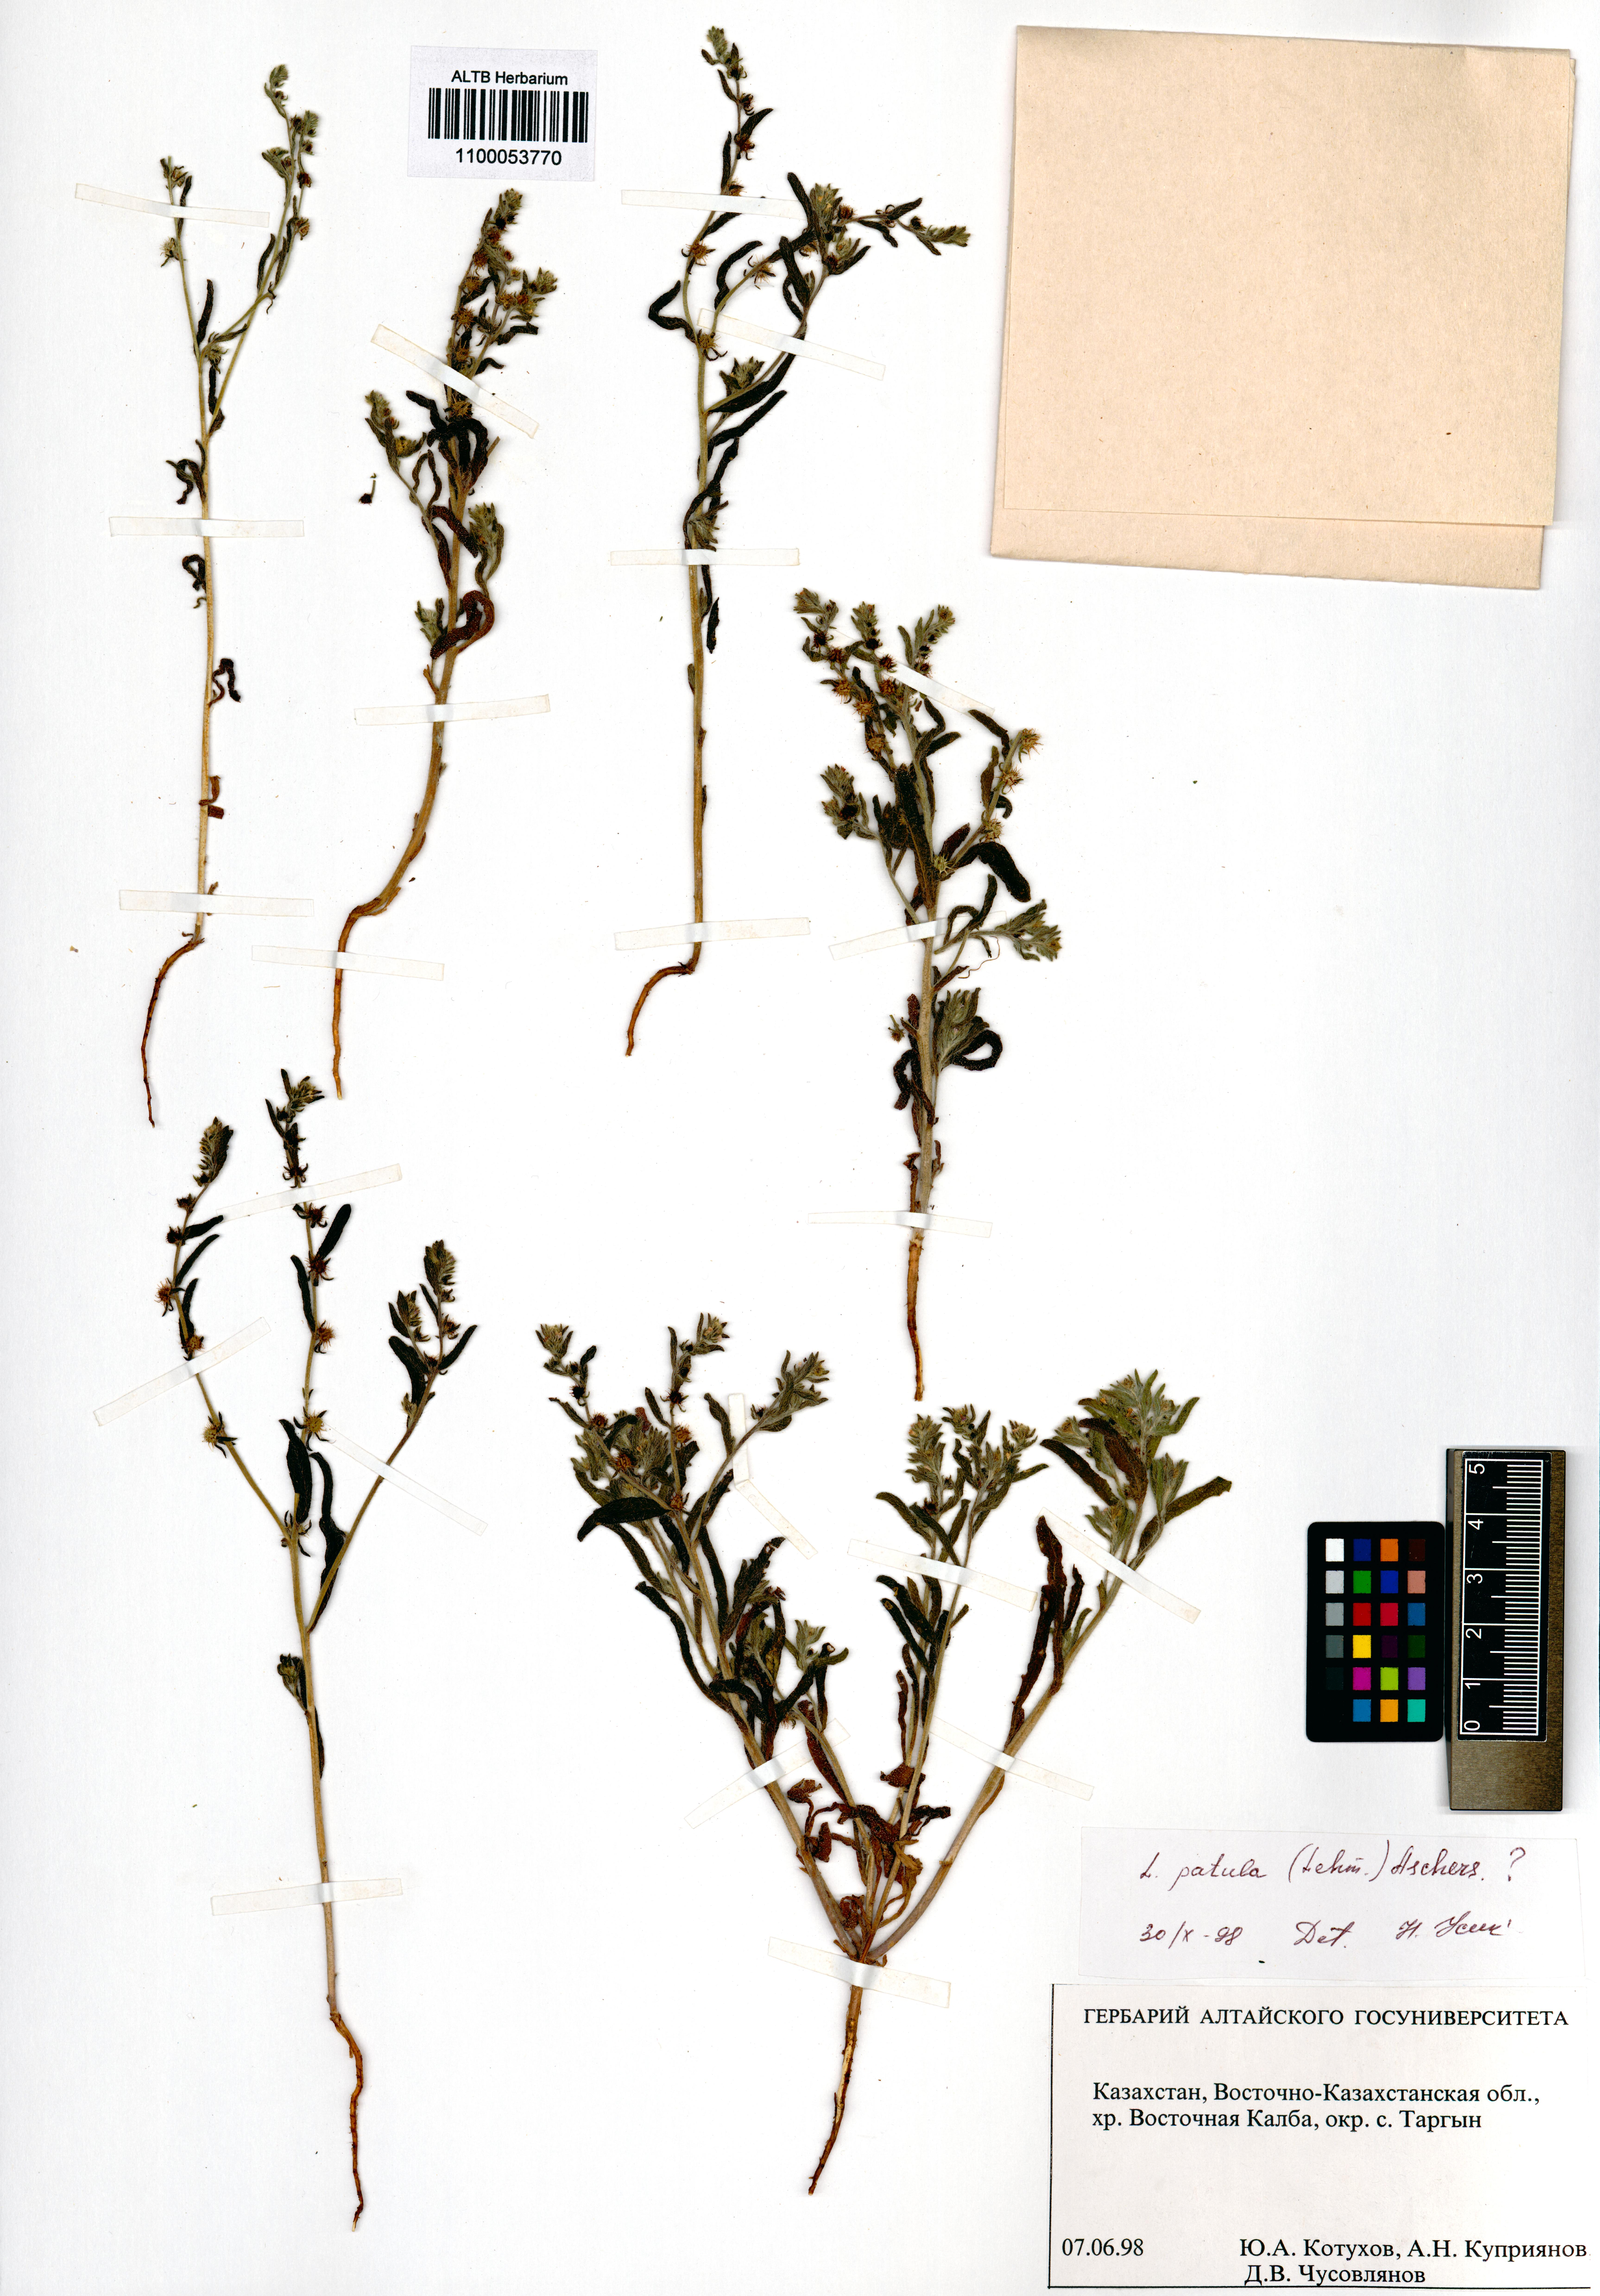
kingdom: Plantae
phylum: Tracheophyta
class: Magnoliopsida
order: Boraginales
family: Boraginaceae
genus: Lappula
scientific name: Lappula patula
